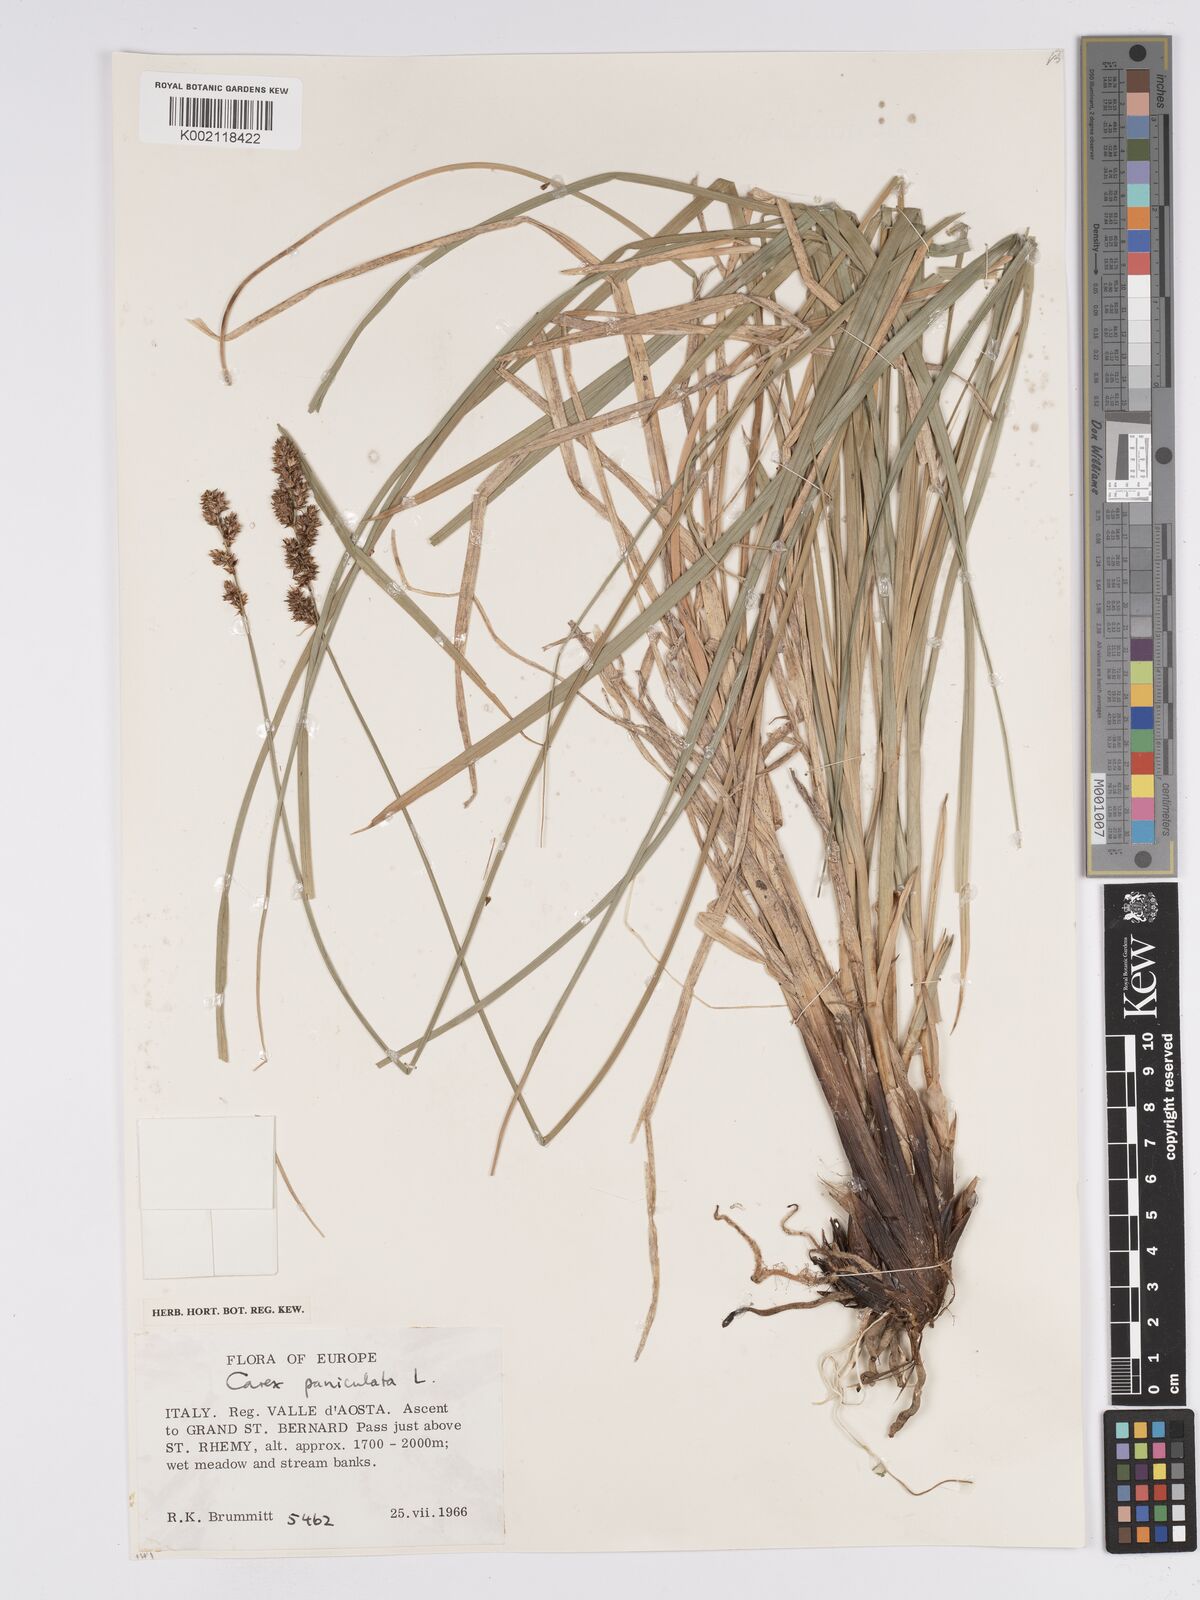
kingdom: Plantae
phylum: Tracheophyta
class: Liliopsida
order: Poales
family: Cyperaceae
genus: Carex
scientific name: Carex paniculata
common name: Greater tussock-sedge
